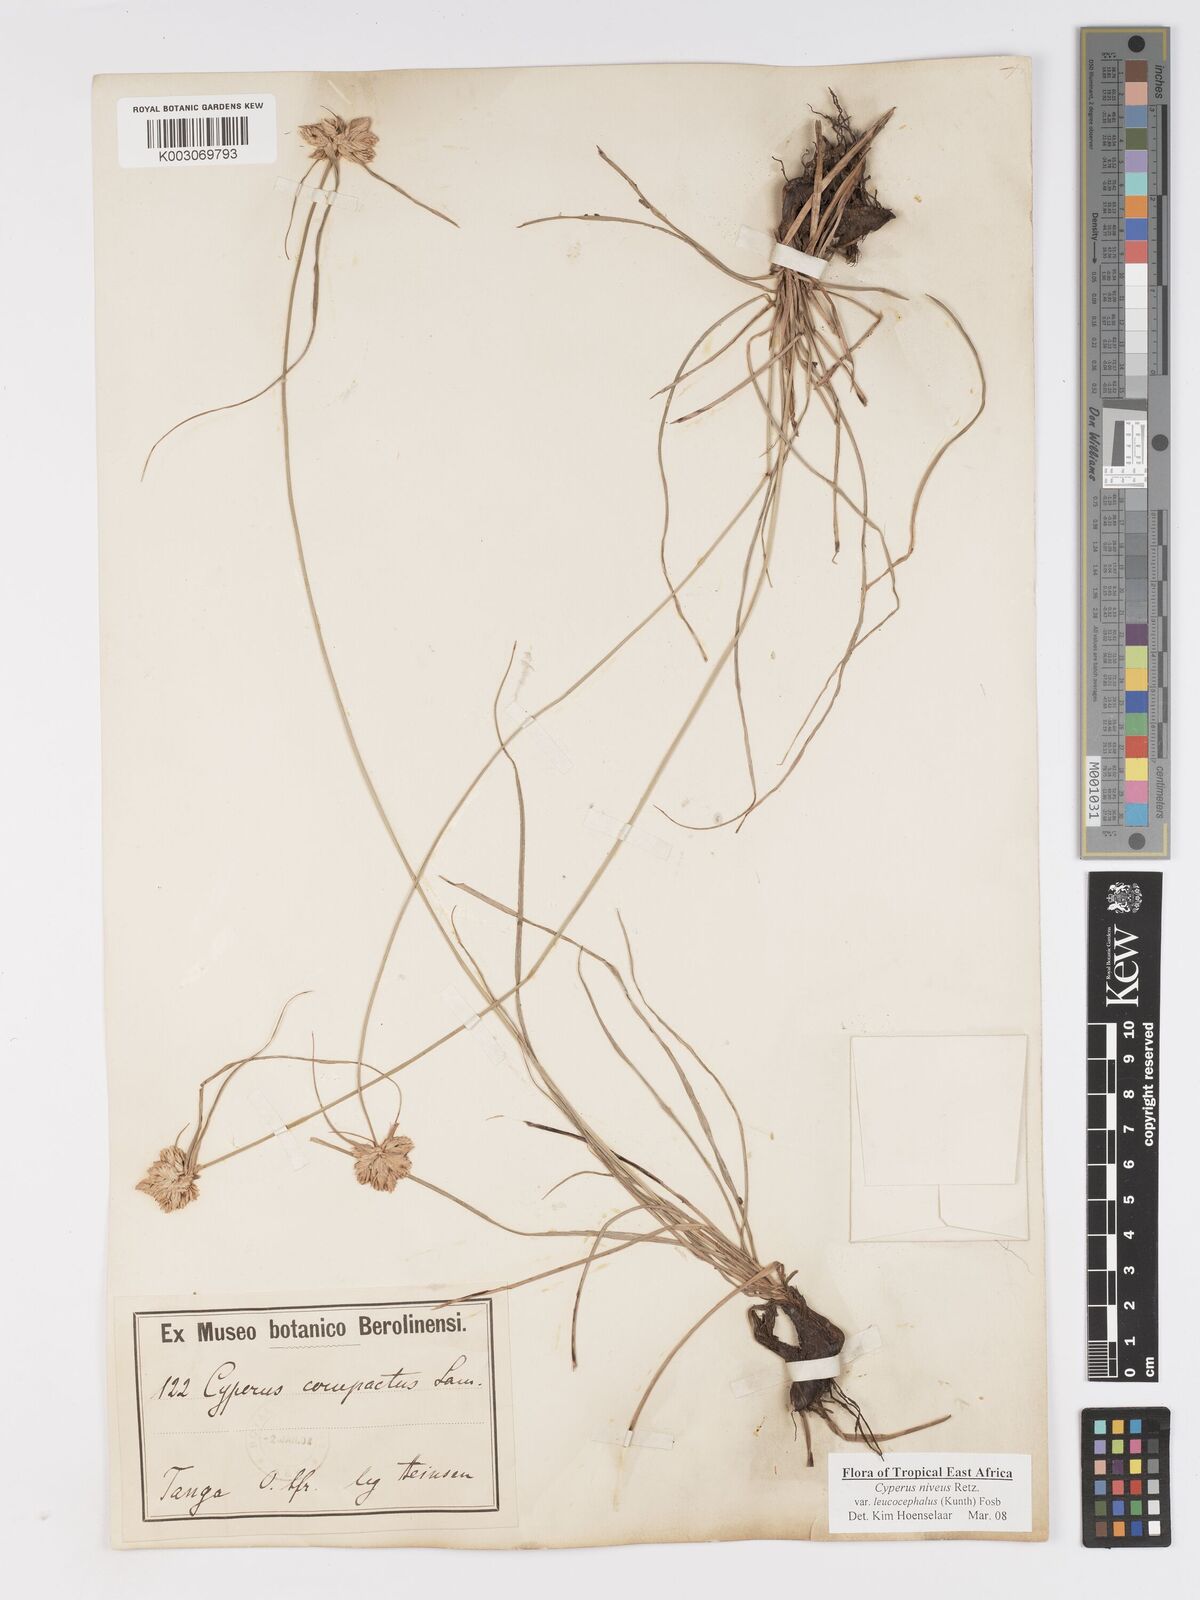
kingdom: Plantae
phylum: Tracheophyta
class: Liliopsida
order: Poales
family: Cyperaceae
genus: Cyperus
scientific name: Cyperus niveus
